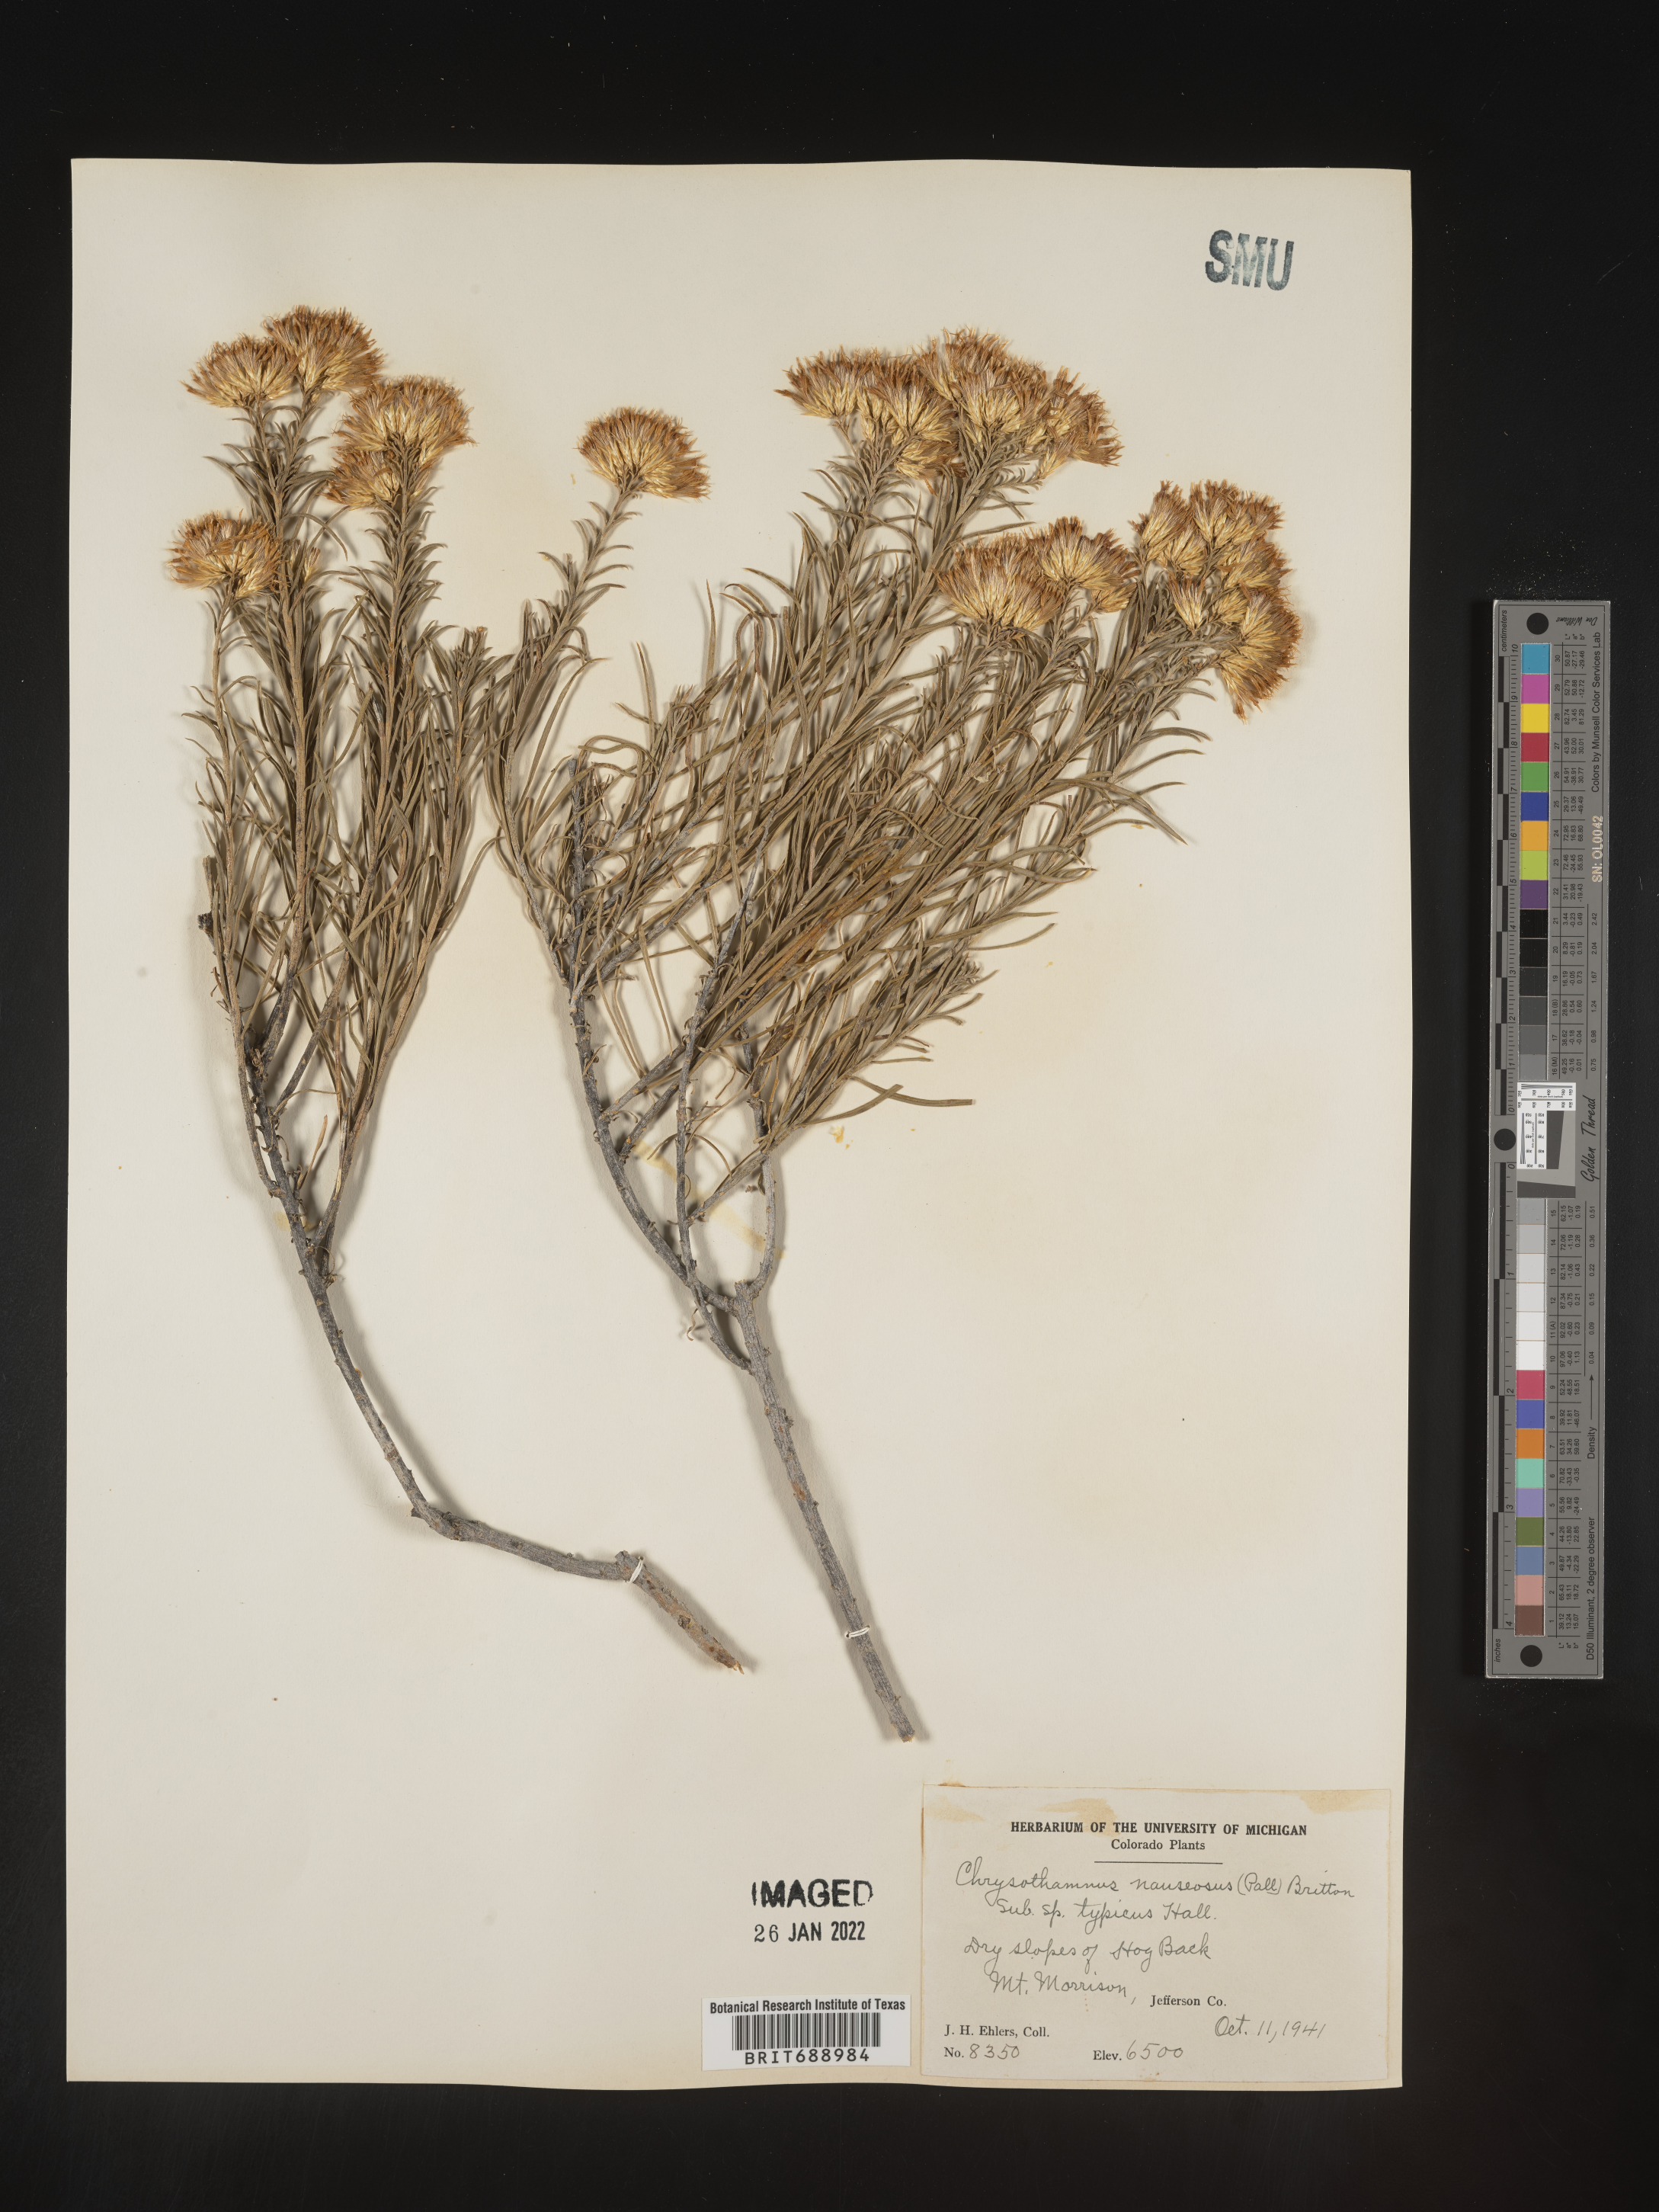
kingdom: Plantae
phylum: Tracheophyta
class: Magnoliopsida
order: Asterales
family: Asteraceae
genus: Ericameria
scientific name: Ericameria nauseosa
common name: Rubber rabbitbrush
